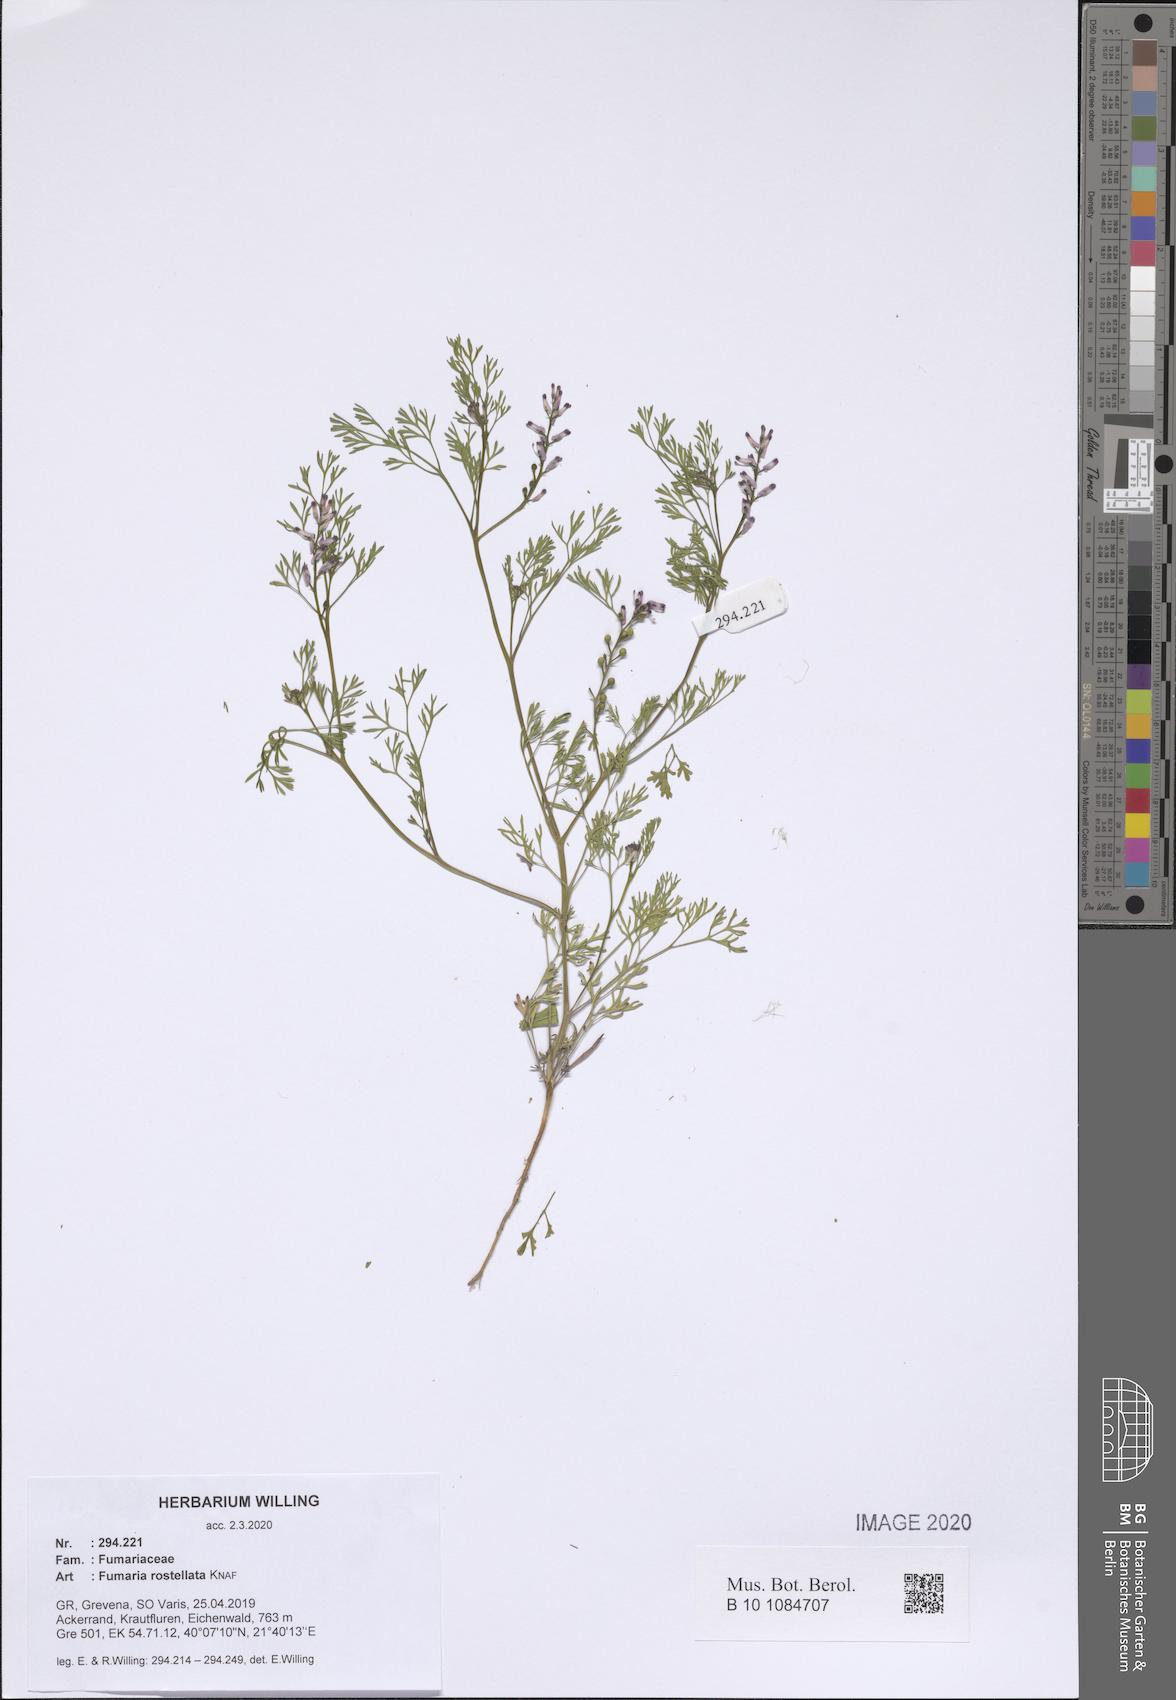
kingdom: Plantae
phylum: Tracheophyta
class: Magnoliopsida
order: Ranunculales
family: Papaveraceae
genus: Fumaria
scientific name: Fumaria rostellata
